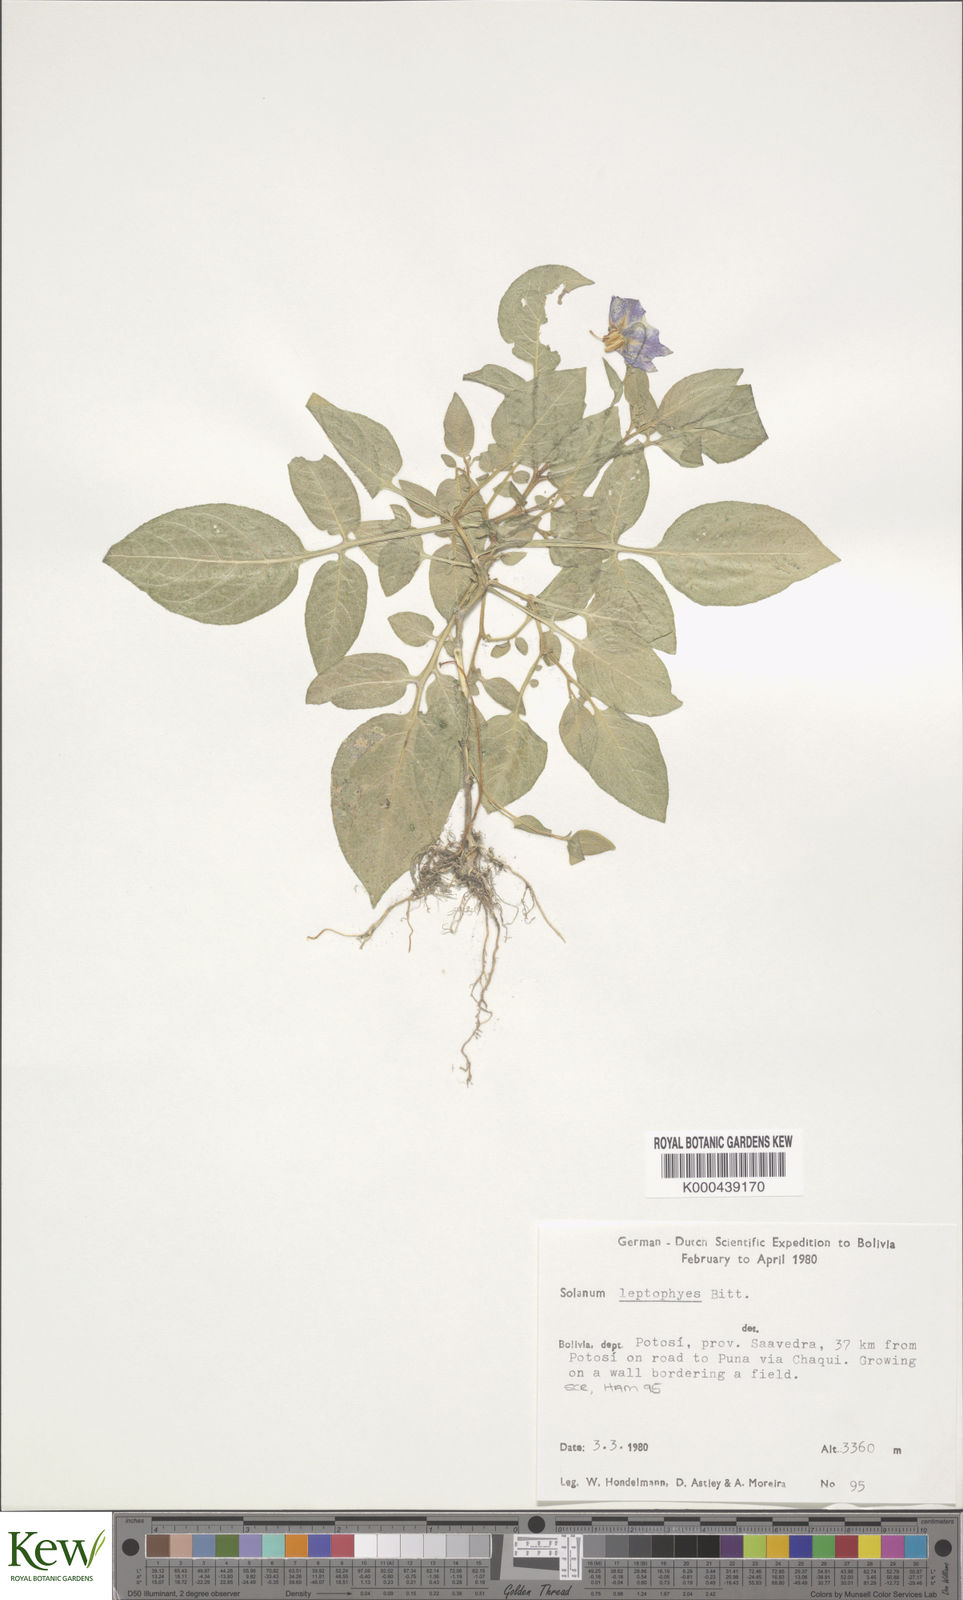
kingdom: Plantae
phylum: Tracheophyta
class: Magnoliopsida
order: Solanales
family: Solanaceae
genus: Solanum
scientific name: Solanum brevicaule
